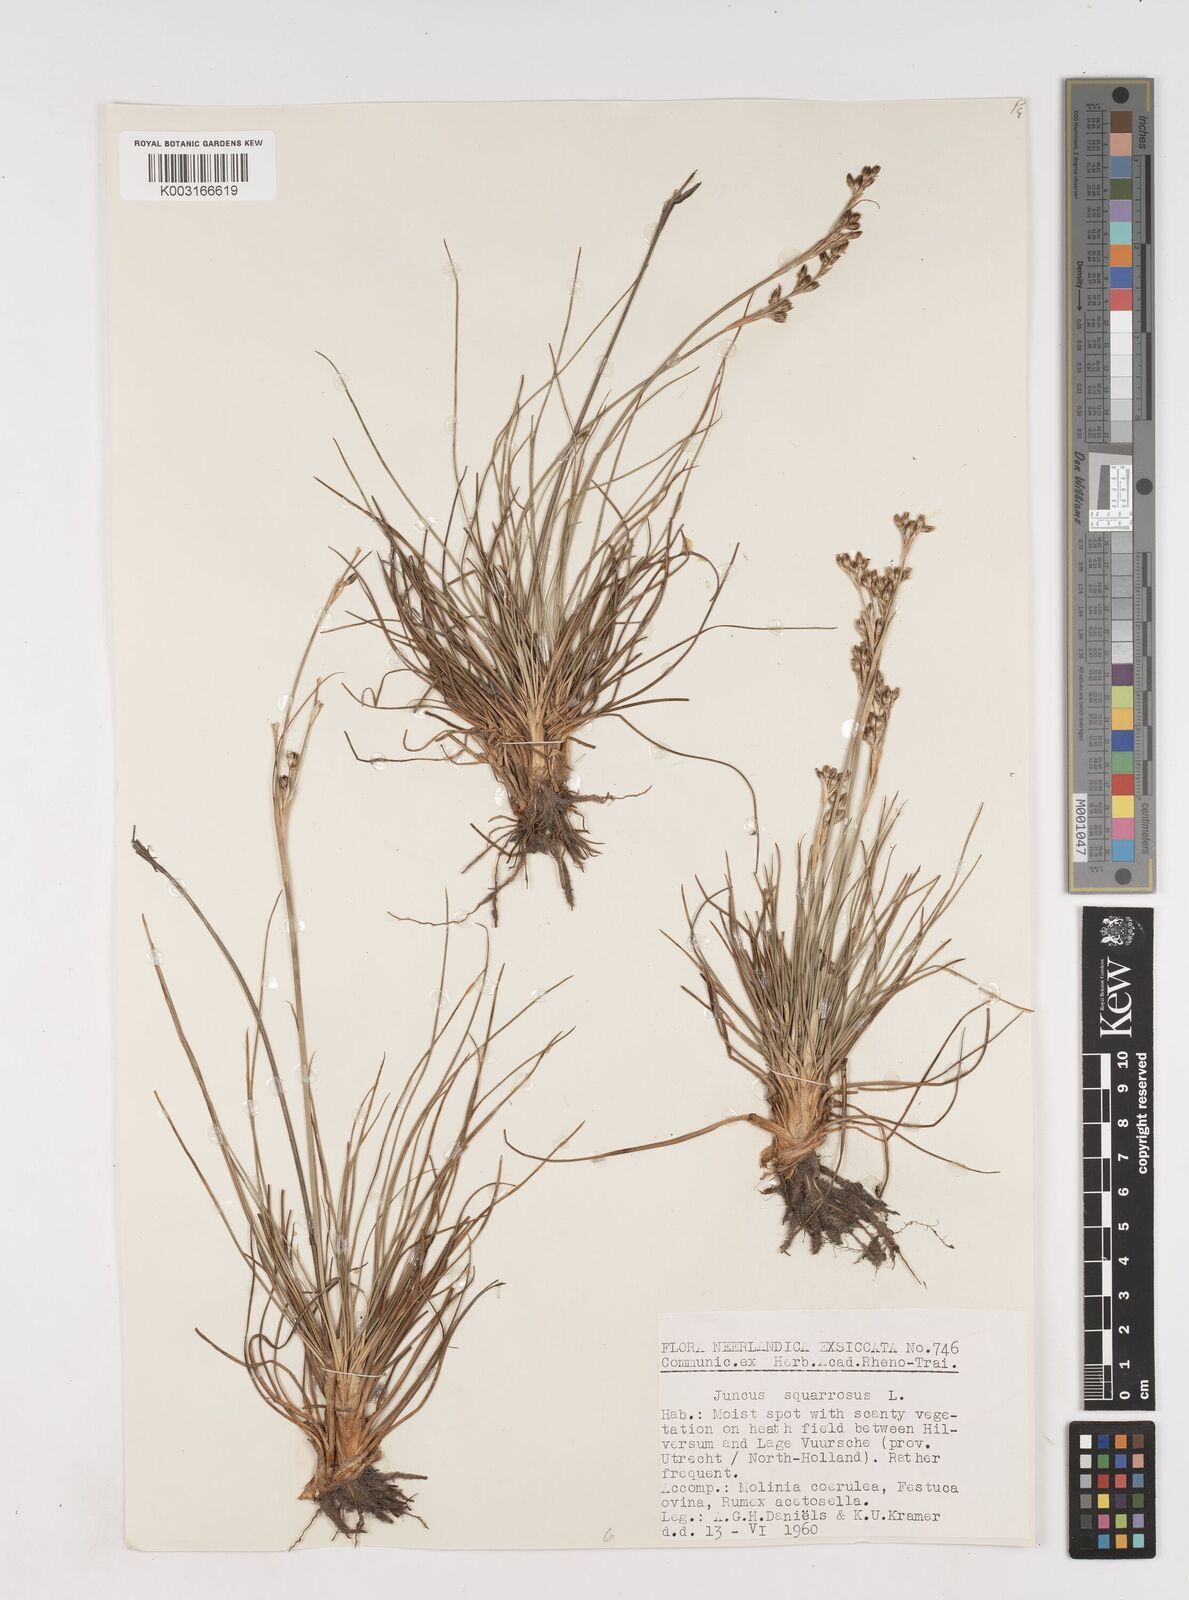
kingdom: Plantae
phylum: Tracheophyta
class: Liliopsida
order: Poales
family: Juncaceae
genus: Juncus
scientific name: Juncus squarrosus
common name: Heath rush
